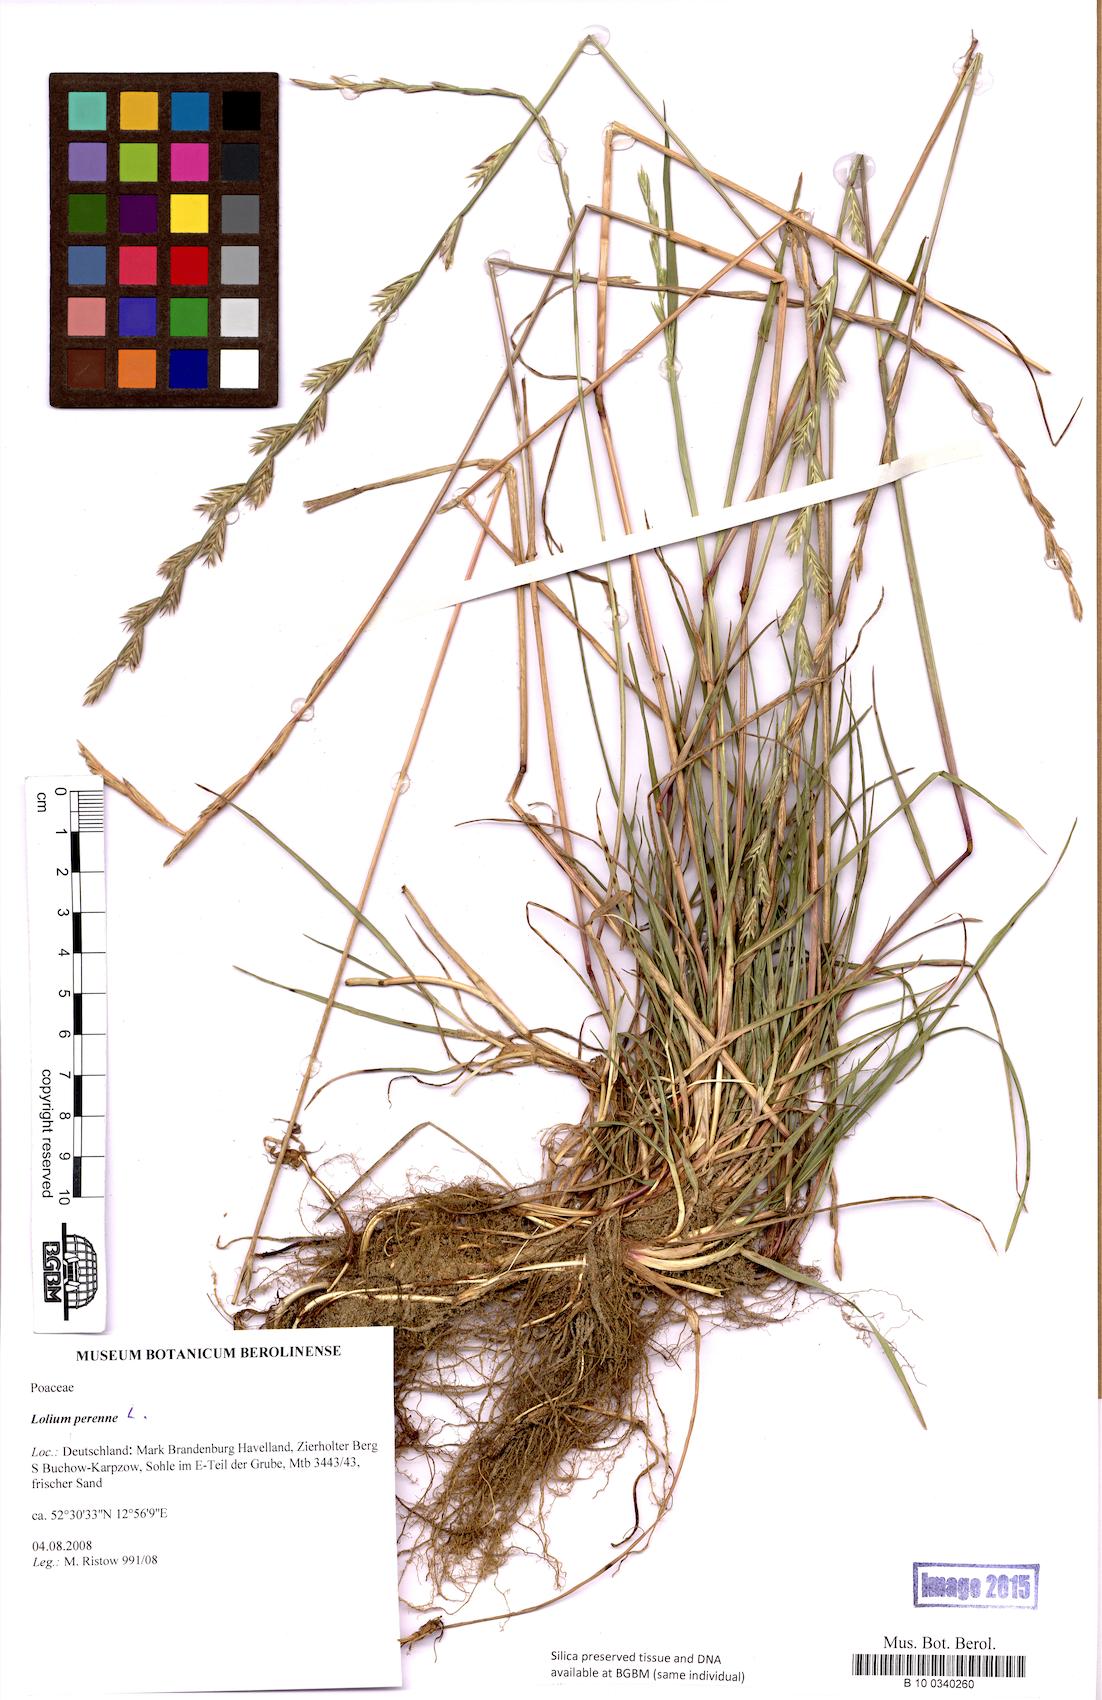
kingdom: Plantae
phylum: Tracheophyta
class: Liliopsida
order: Poales
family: Poaceae
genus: Lolium
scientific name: Lolium perenne
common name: Perennial ryegrass
